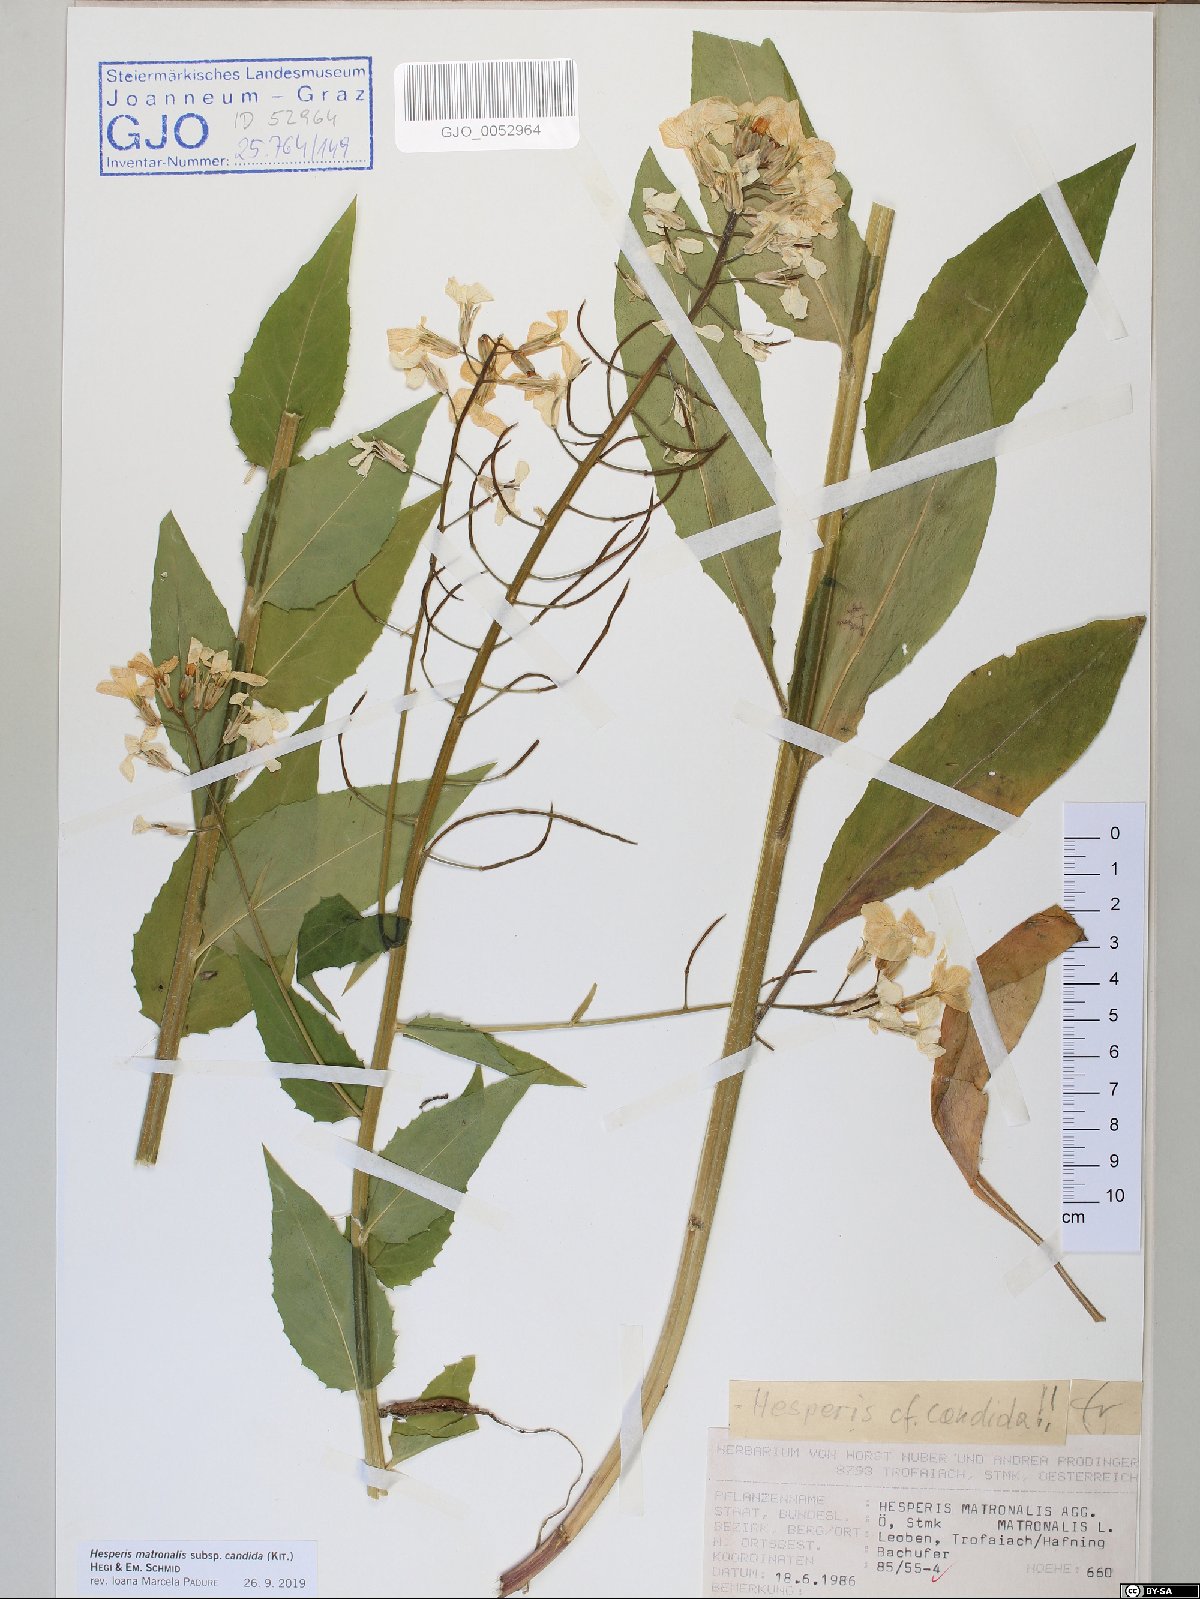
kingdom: Plantae
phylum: Tracheophyta
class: Magnoliopsida
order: Brassicales
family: Brassicaceae
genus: Hesperis
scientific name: Hesperis matronalis
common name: Dame's-violet
